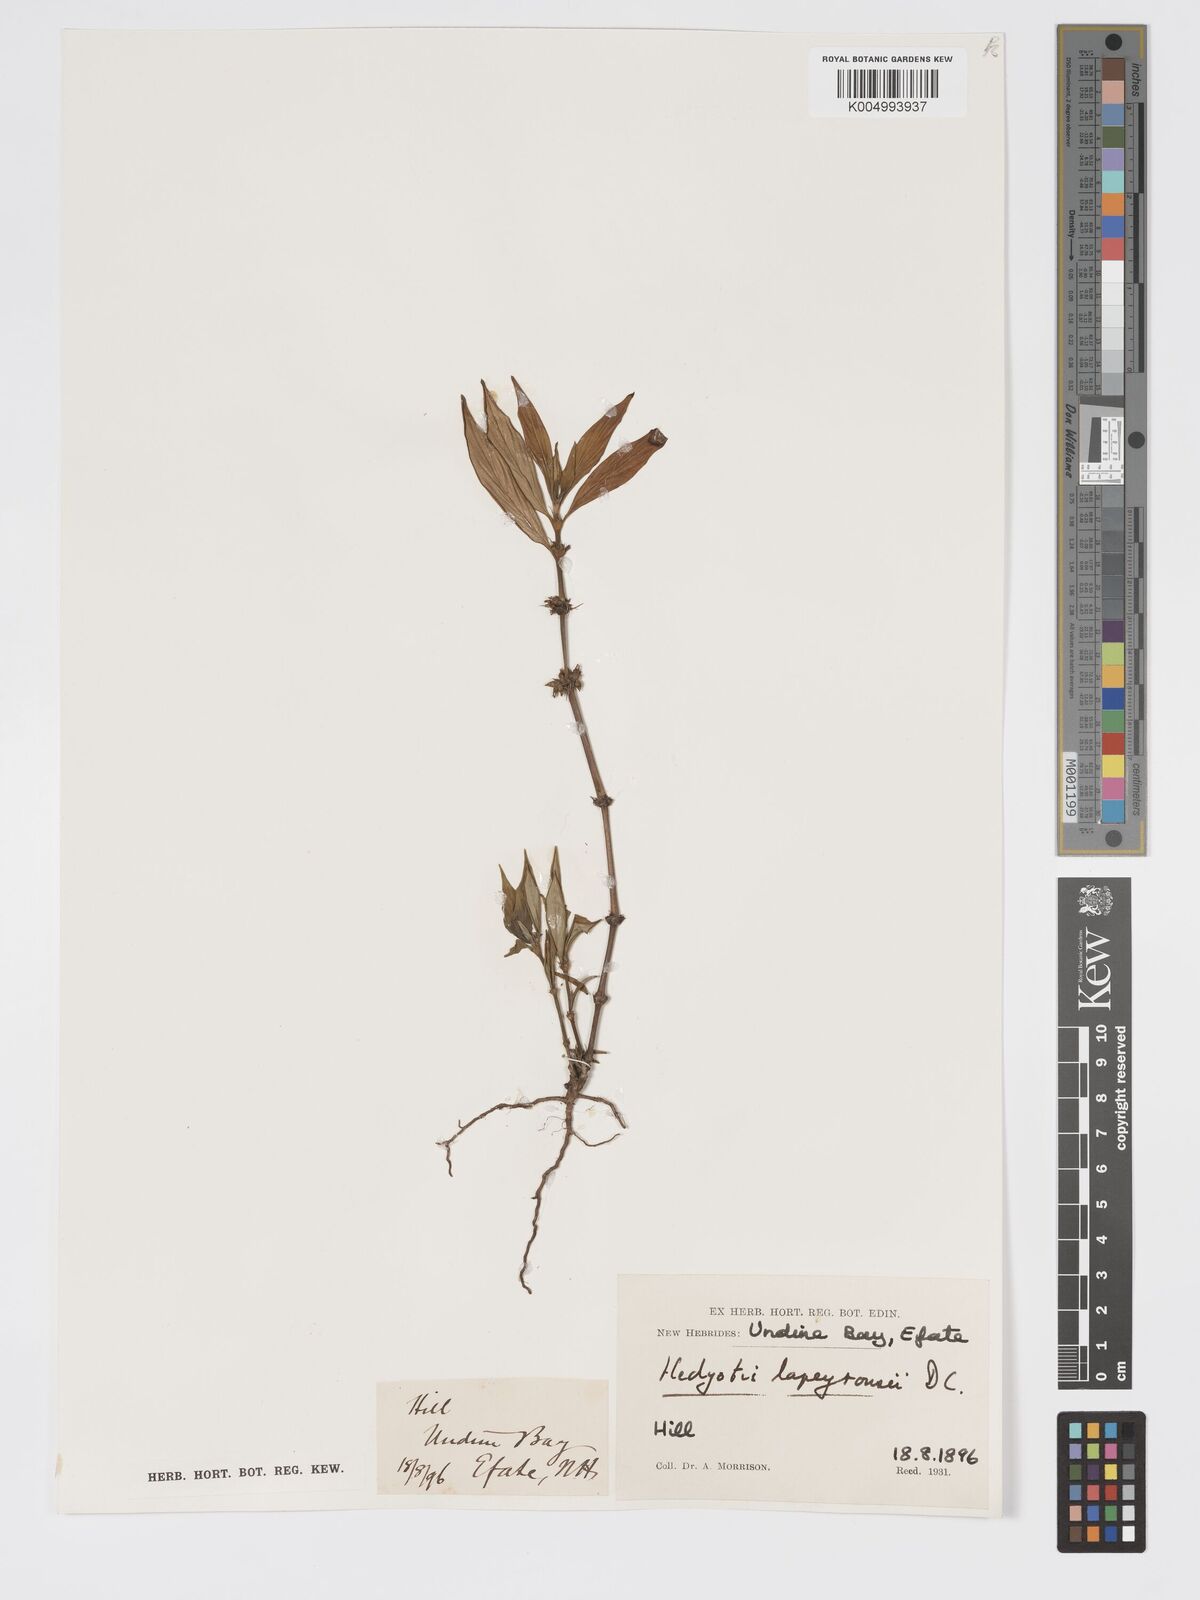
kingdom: Plantae
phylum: Tracheophyta
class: Magnoliopsida
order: Gentianales
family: Rubiaceae
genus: Exallage
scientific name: Exallage lapeyrousei
